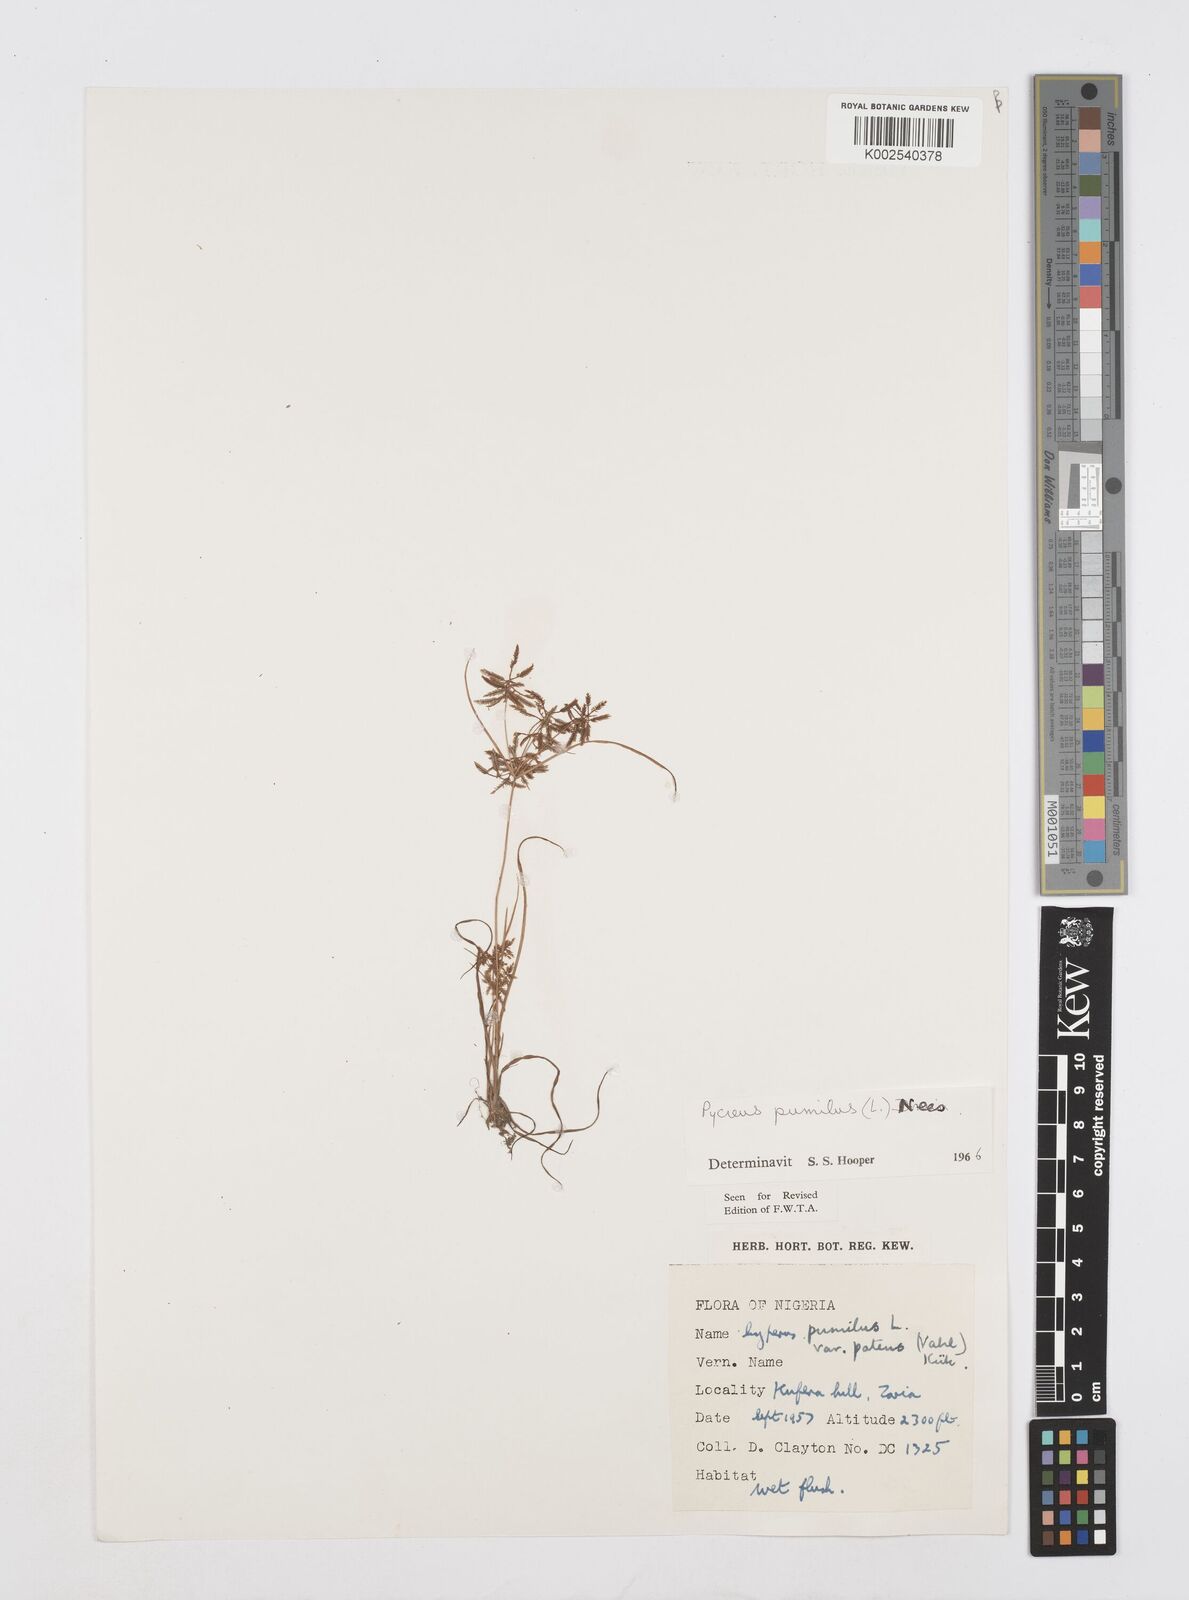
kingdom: Plantae
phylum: Tracheophyta
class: Liliopsida
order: Poales
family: Cyperaceae
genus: Cyperus
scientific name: Cyperus pumilus
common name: Low flatsedge
